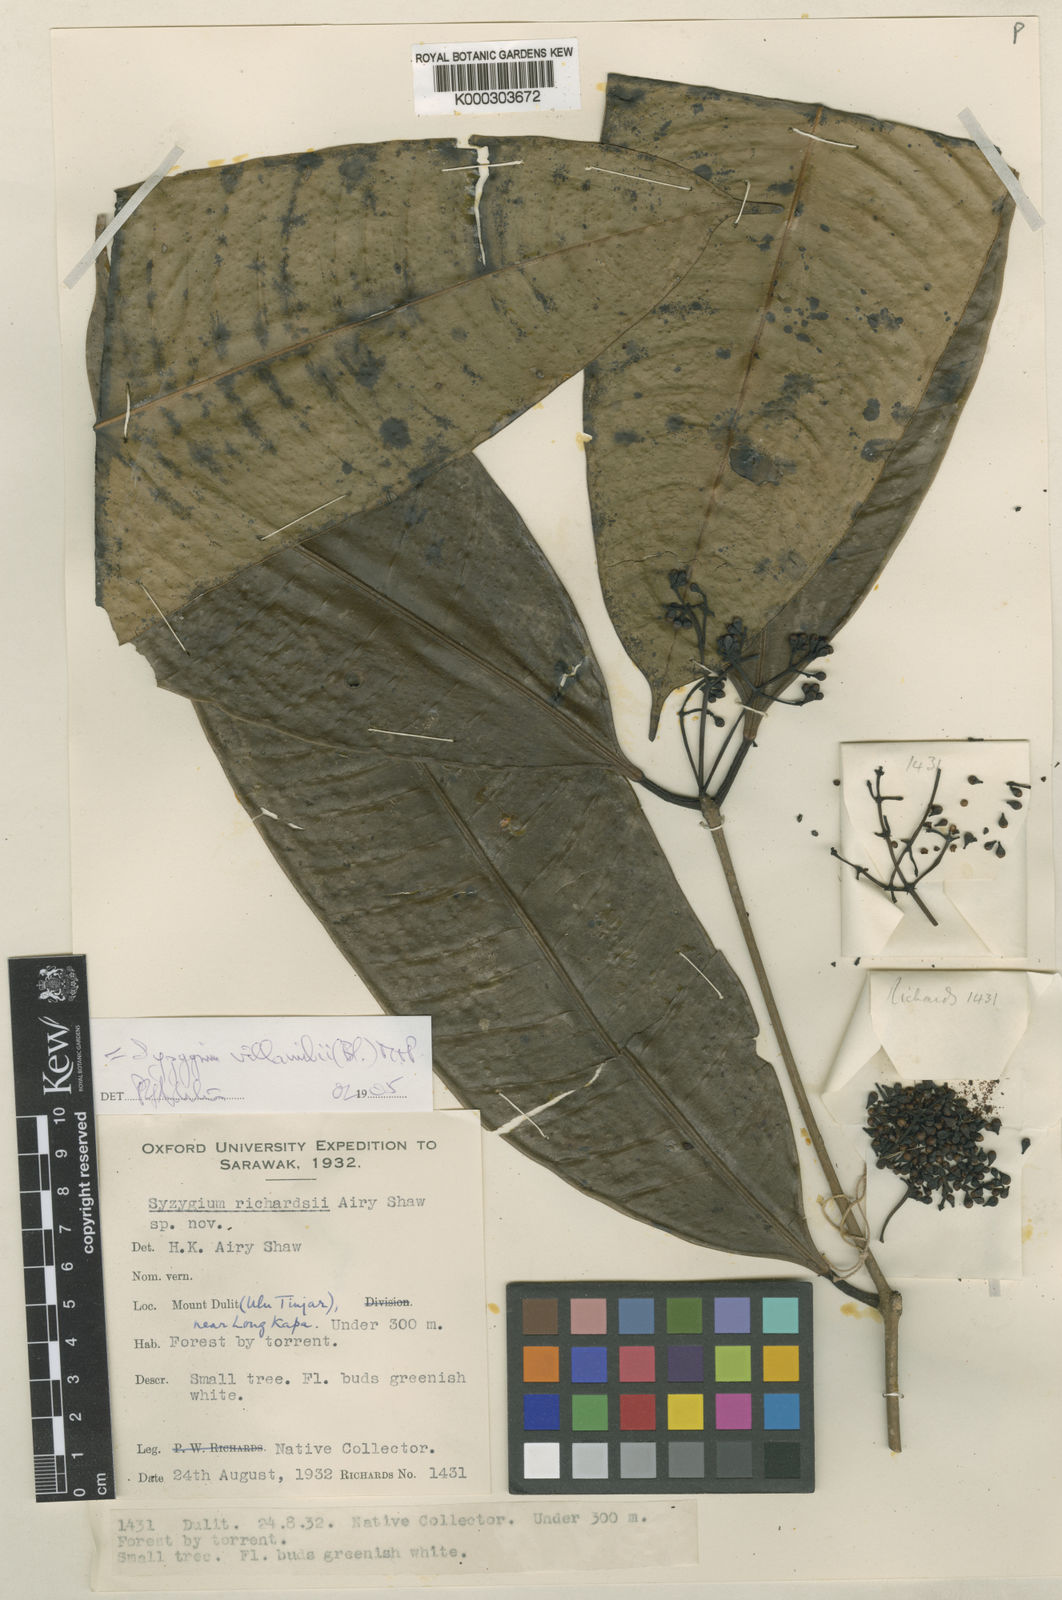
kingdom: Plantae
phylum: Tracheophyta
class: Magnoliopsida
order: Myrtales
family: Myrtaceae
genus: Syzygium
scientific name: Syzygium villamilii
